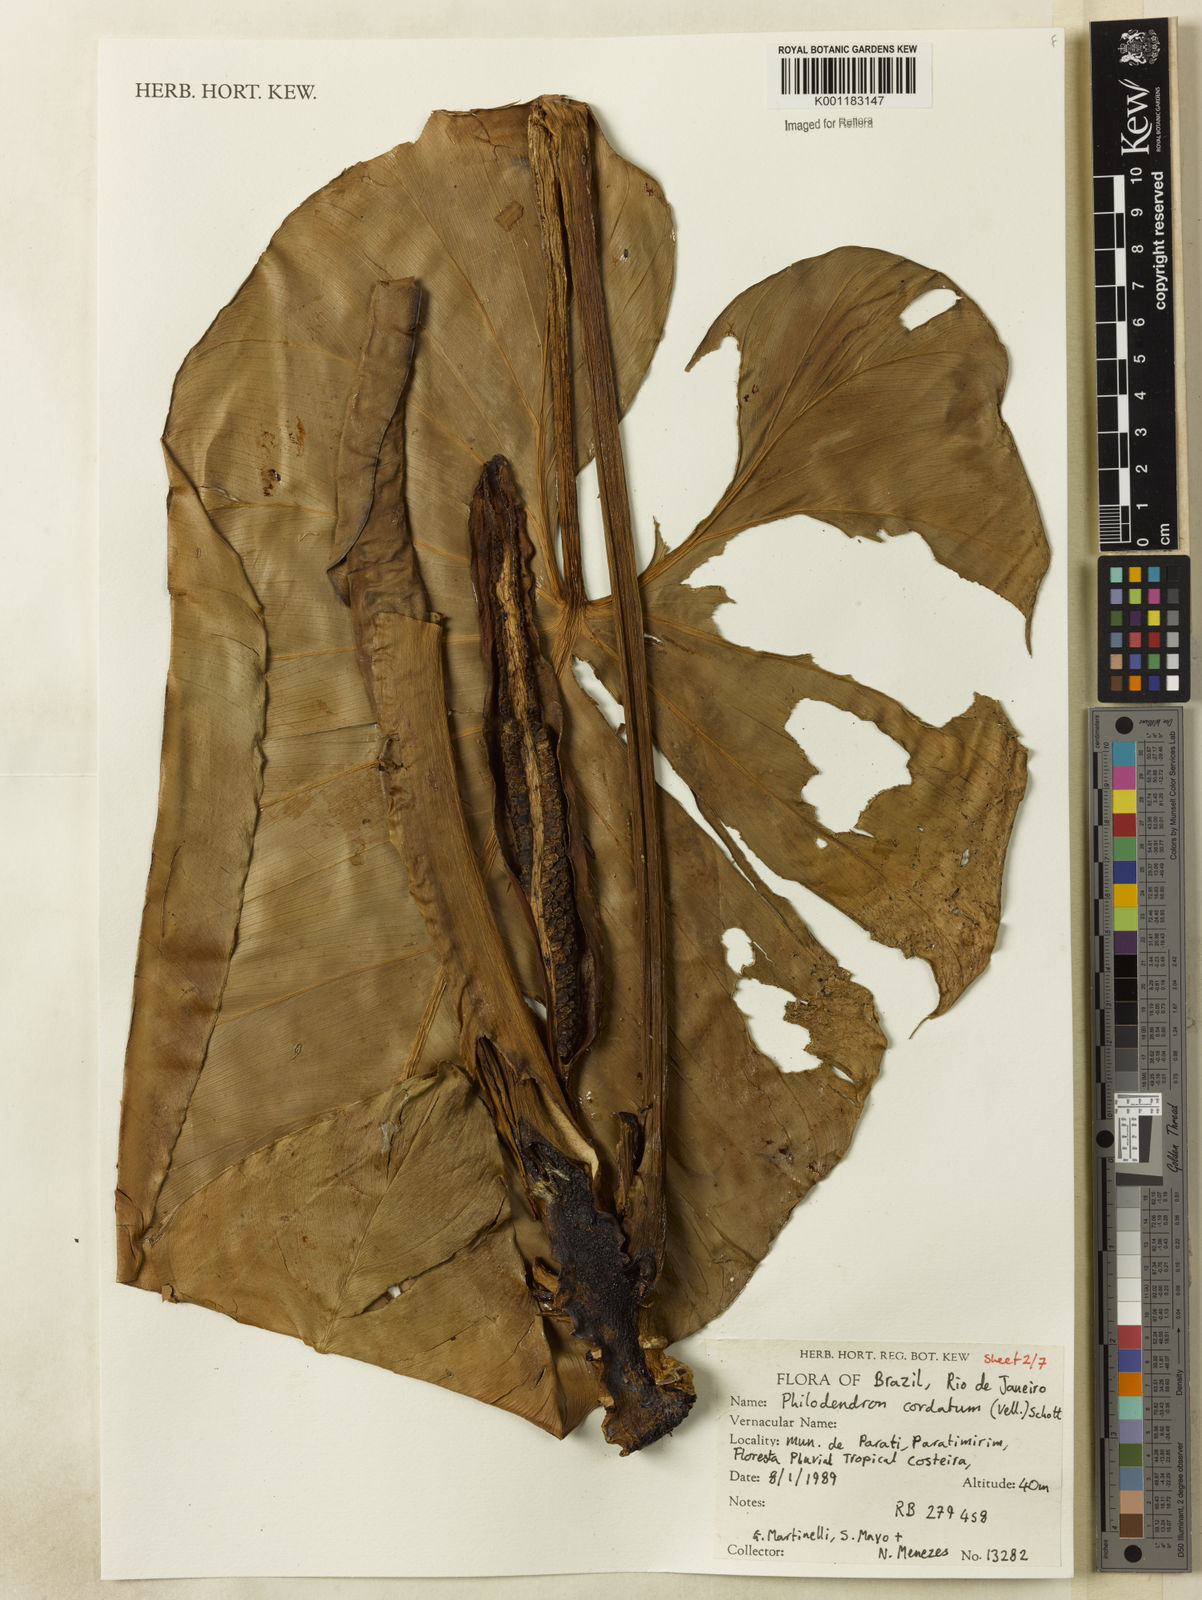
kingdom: Plantae
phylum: Tracheophyta
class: Liliopsida
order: Alismatales
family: Araceae
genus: Philodendron
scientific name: Philodendron cordatum
